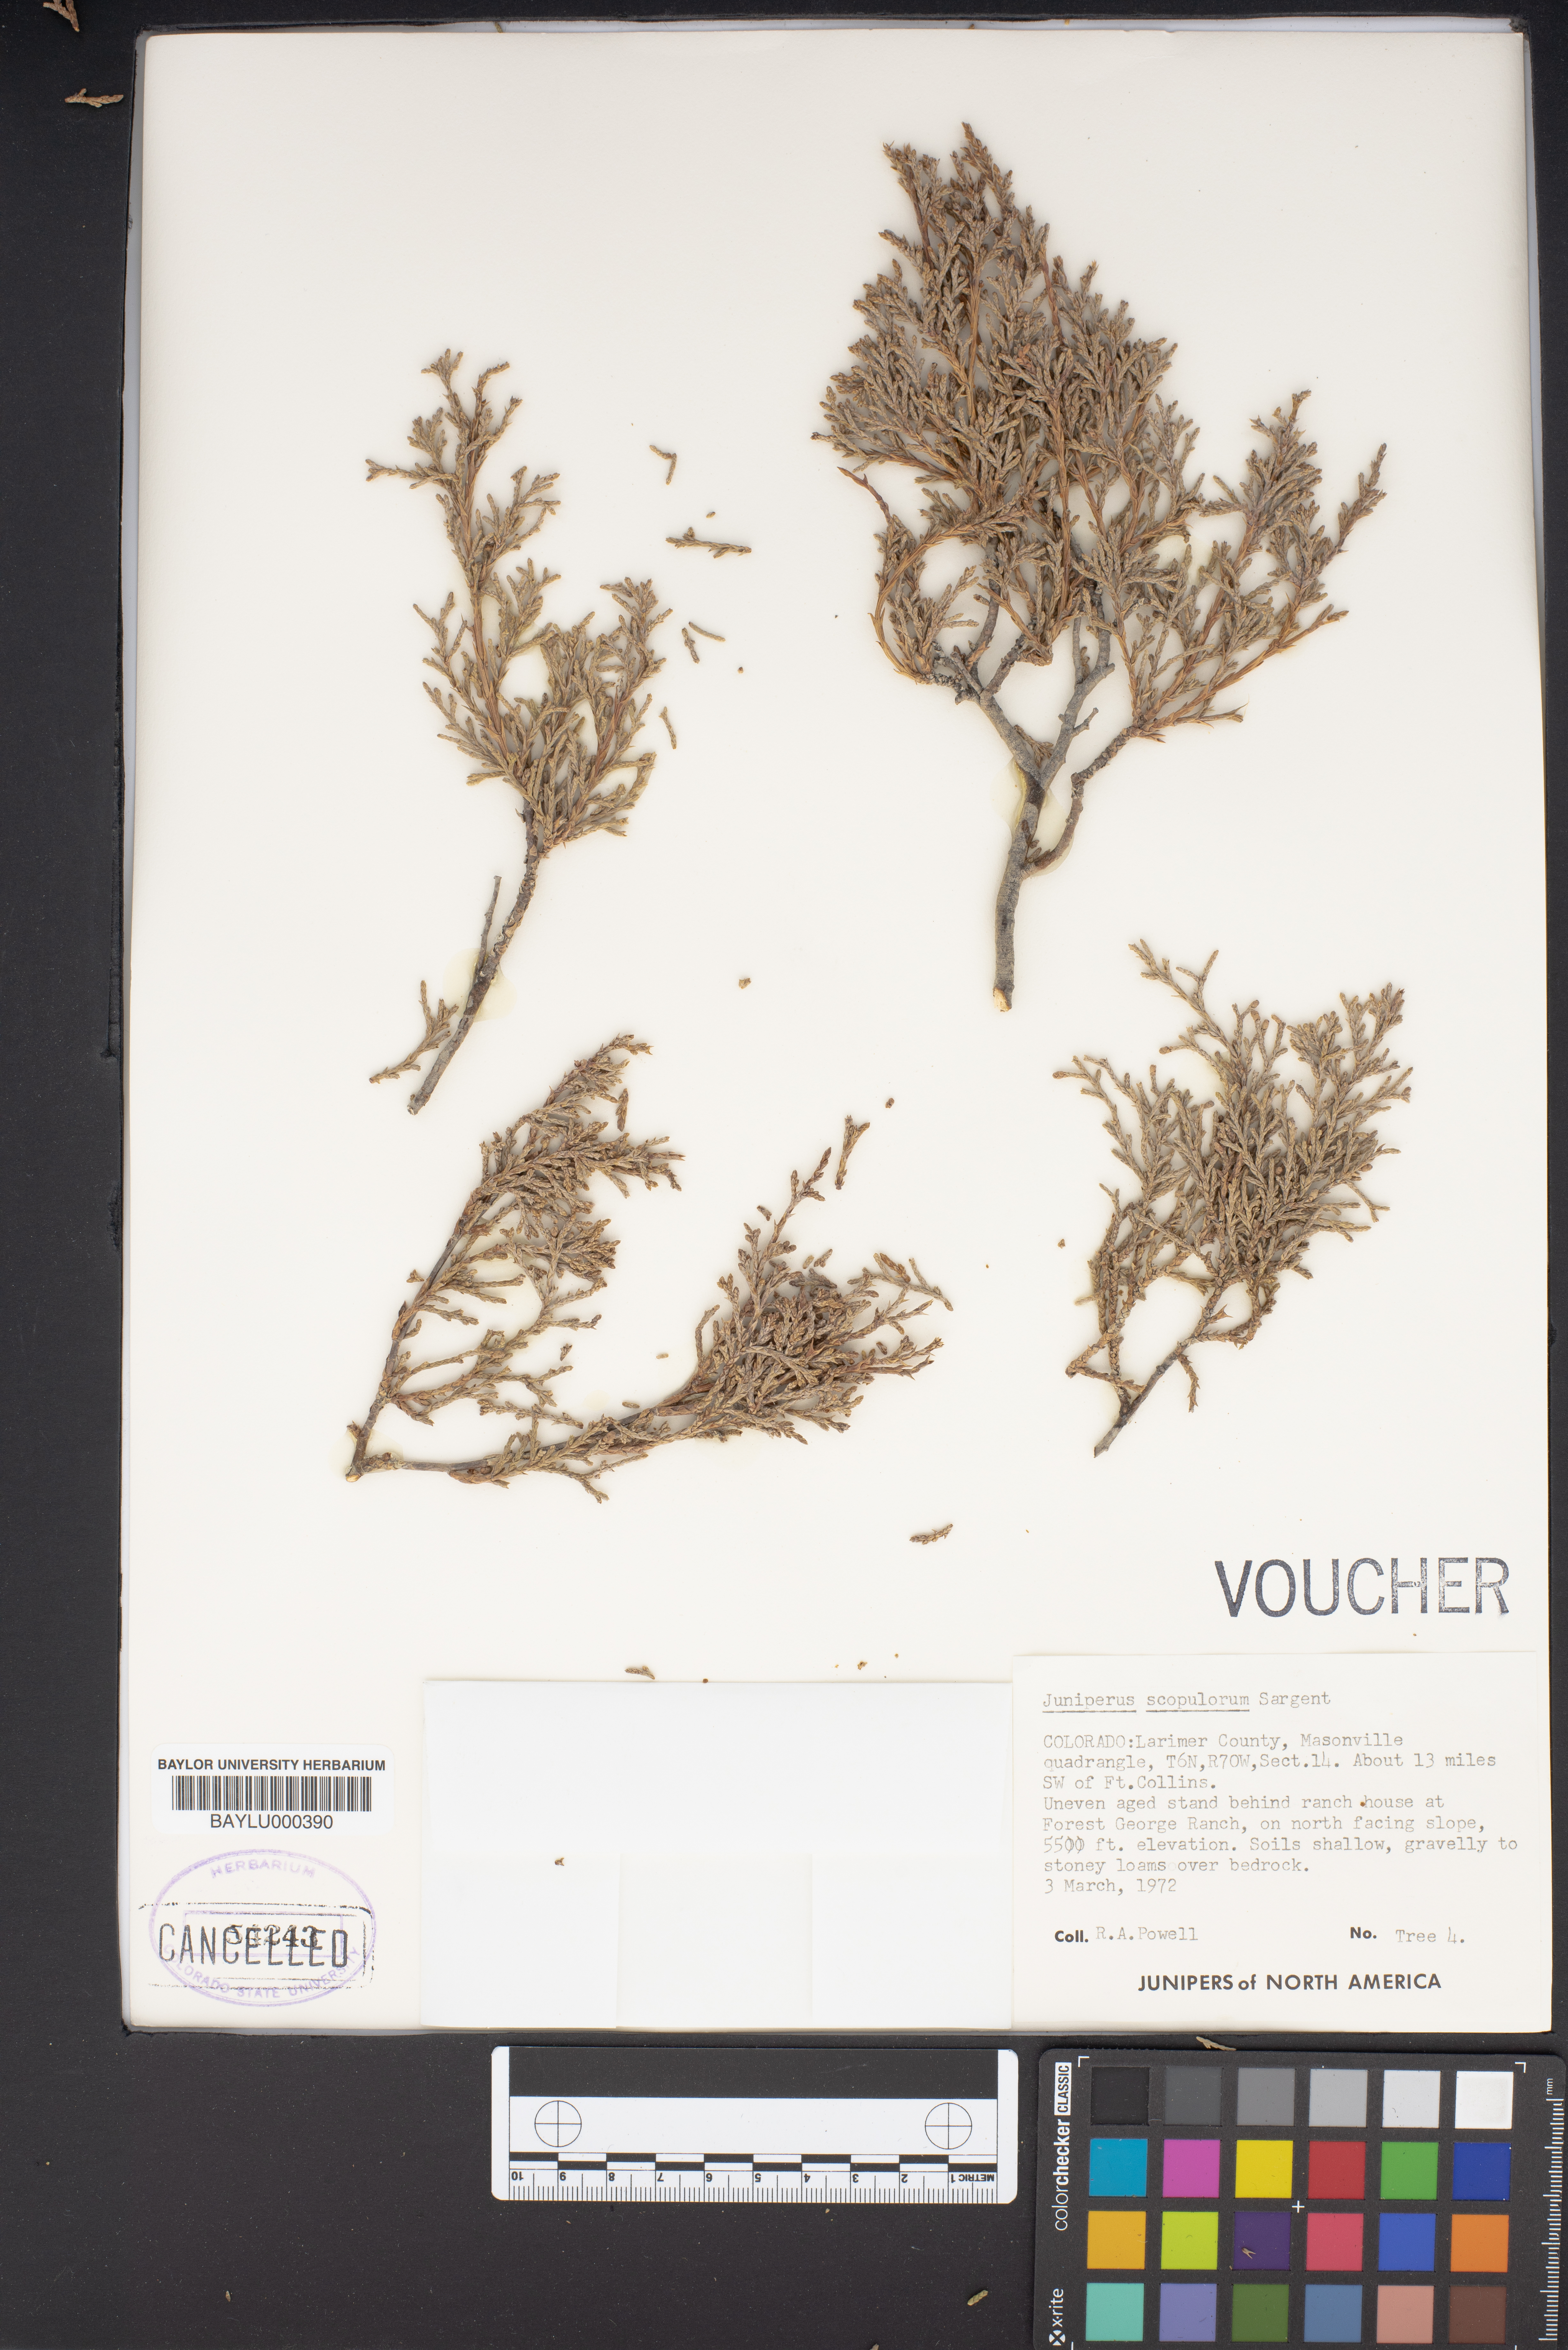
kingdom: Plantae
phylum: Tracheophyta
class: Pinopsida
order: Pinales
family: Cupressaceae
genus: Juniperus
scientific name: Juniperus scopulorum
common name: Rocky mountain juniper
